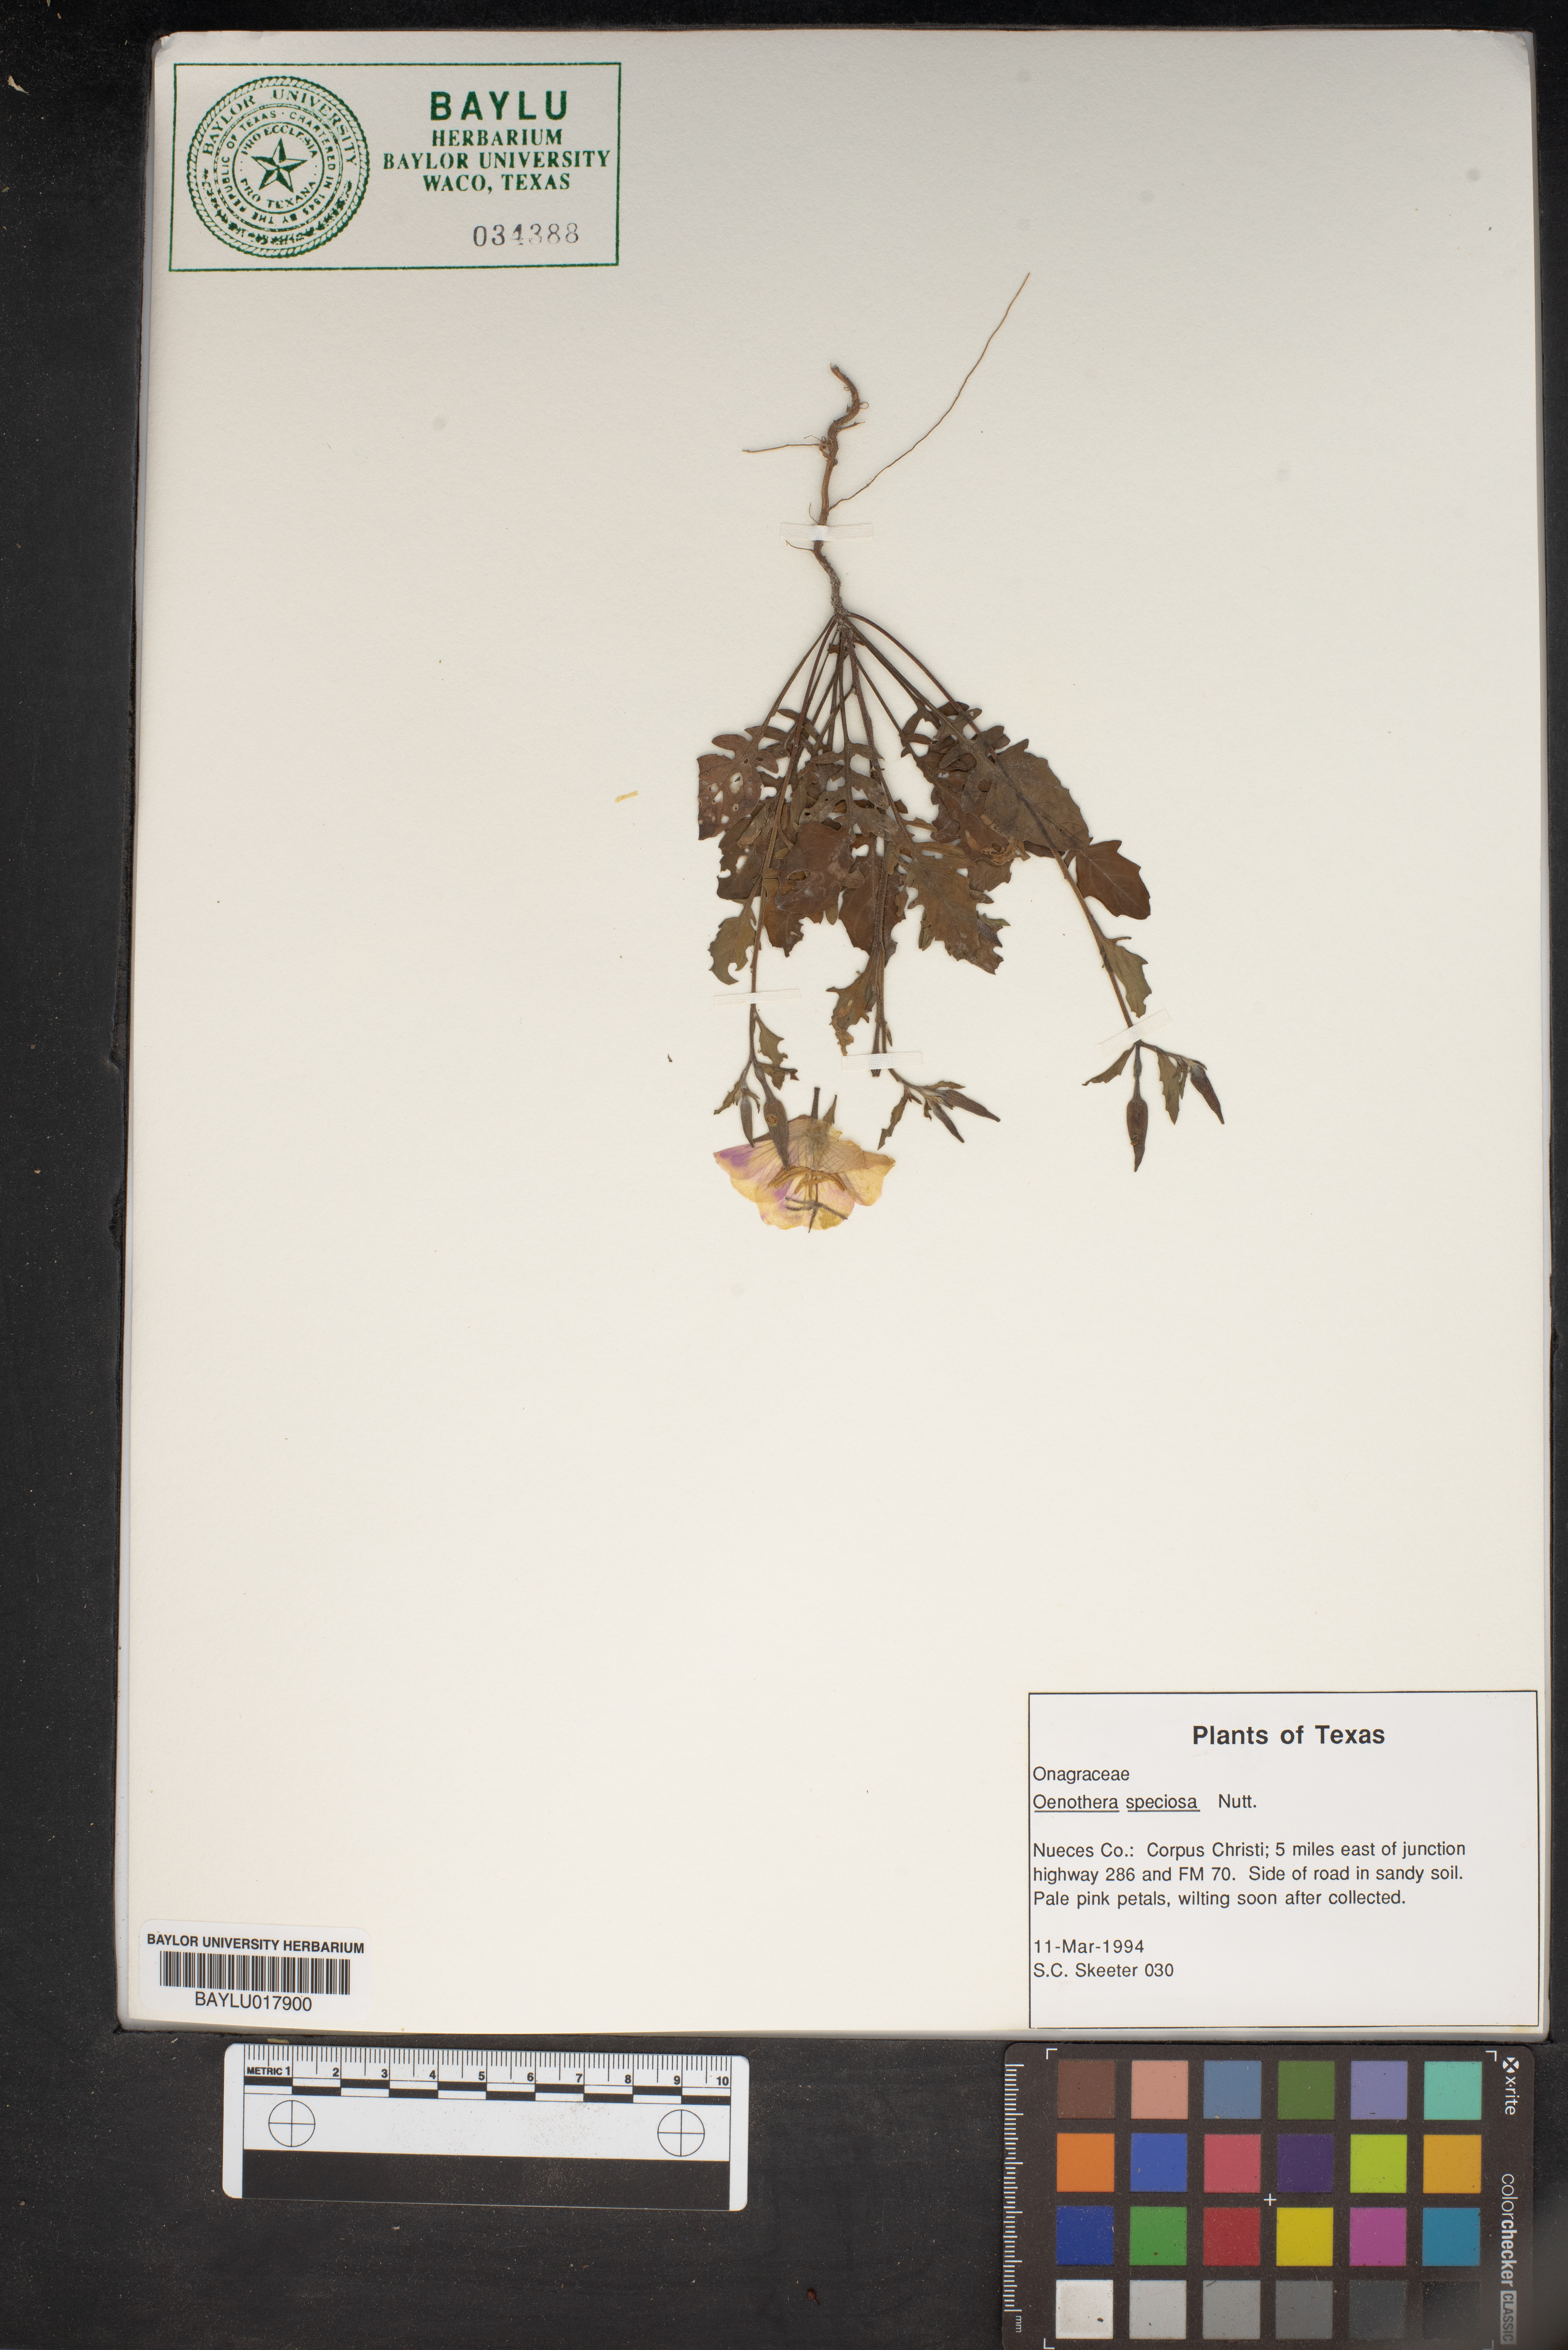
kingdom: Plantae
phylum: Tracheophyta
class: Magnoliopsida
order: Myrtales
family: Onagraceae
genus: Oenothera
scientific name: Oenothera speciosa
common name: White evening-primrose
